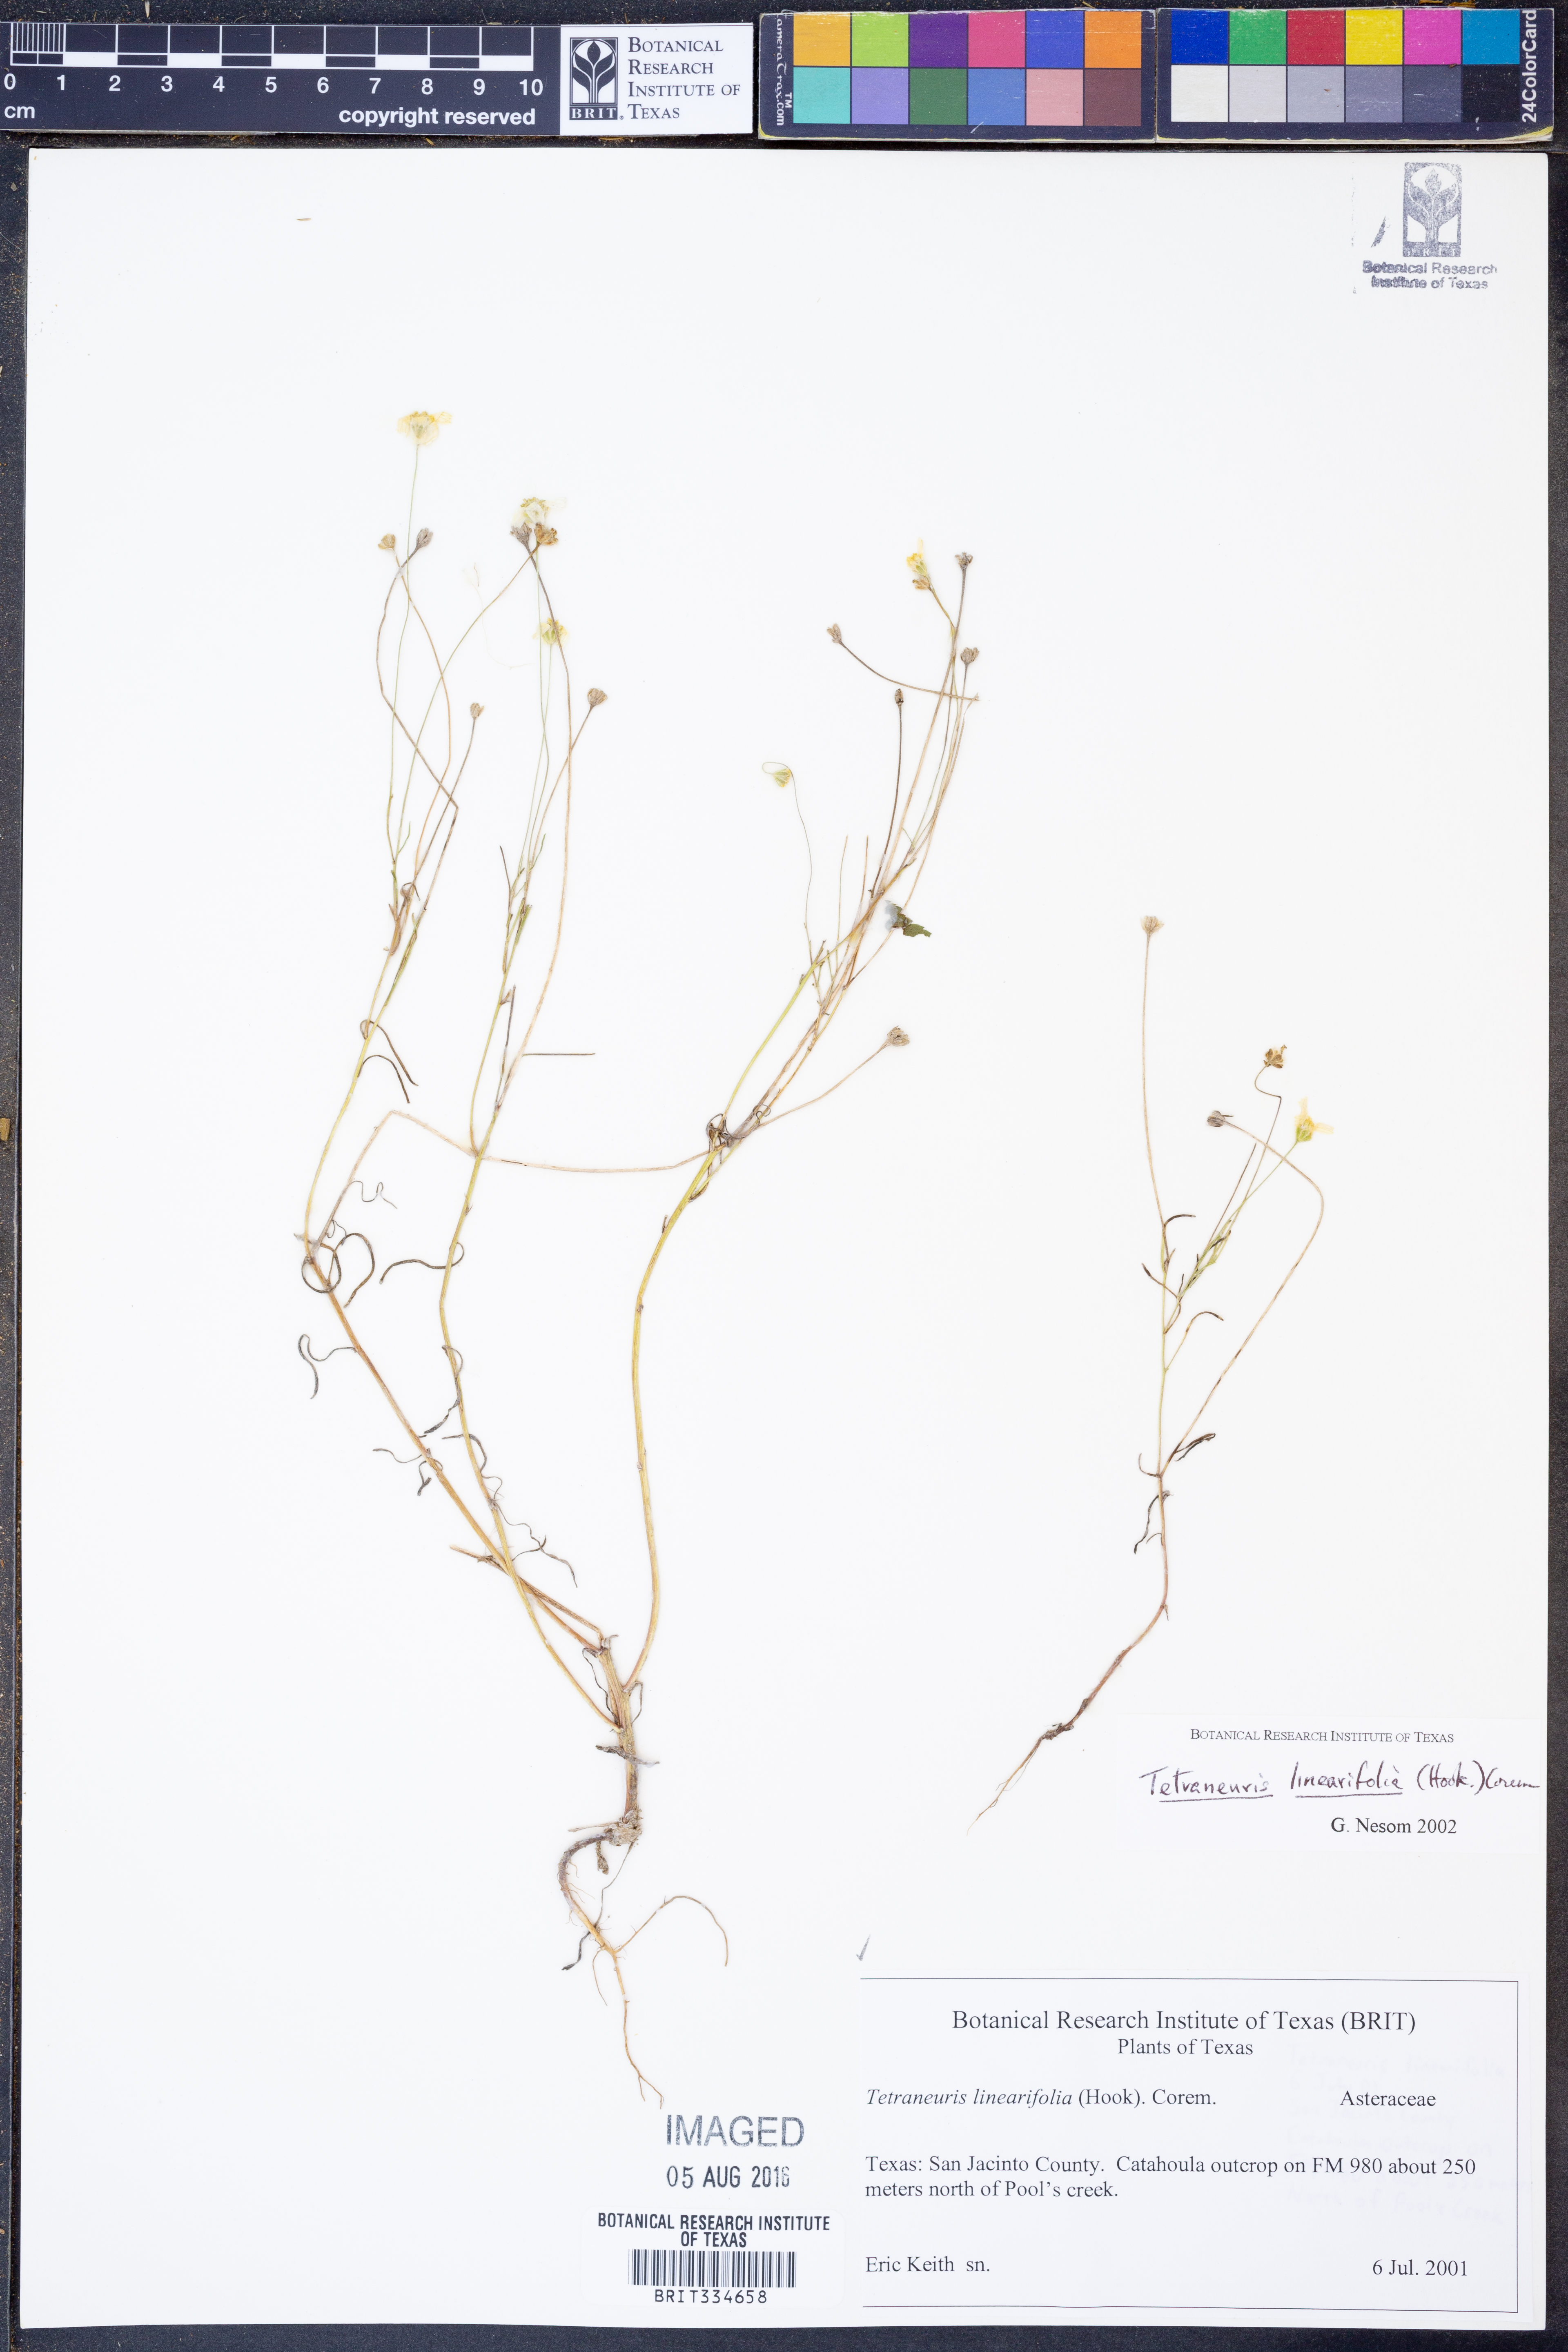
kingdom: Plantae
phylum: Tracheophyta
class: Magnoliopsida
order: Asterales
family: Asteraceae
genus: Tetraneuris
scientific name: Tetraneuris linearifolia
